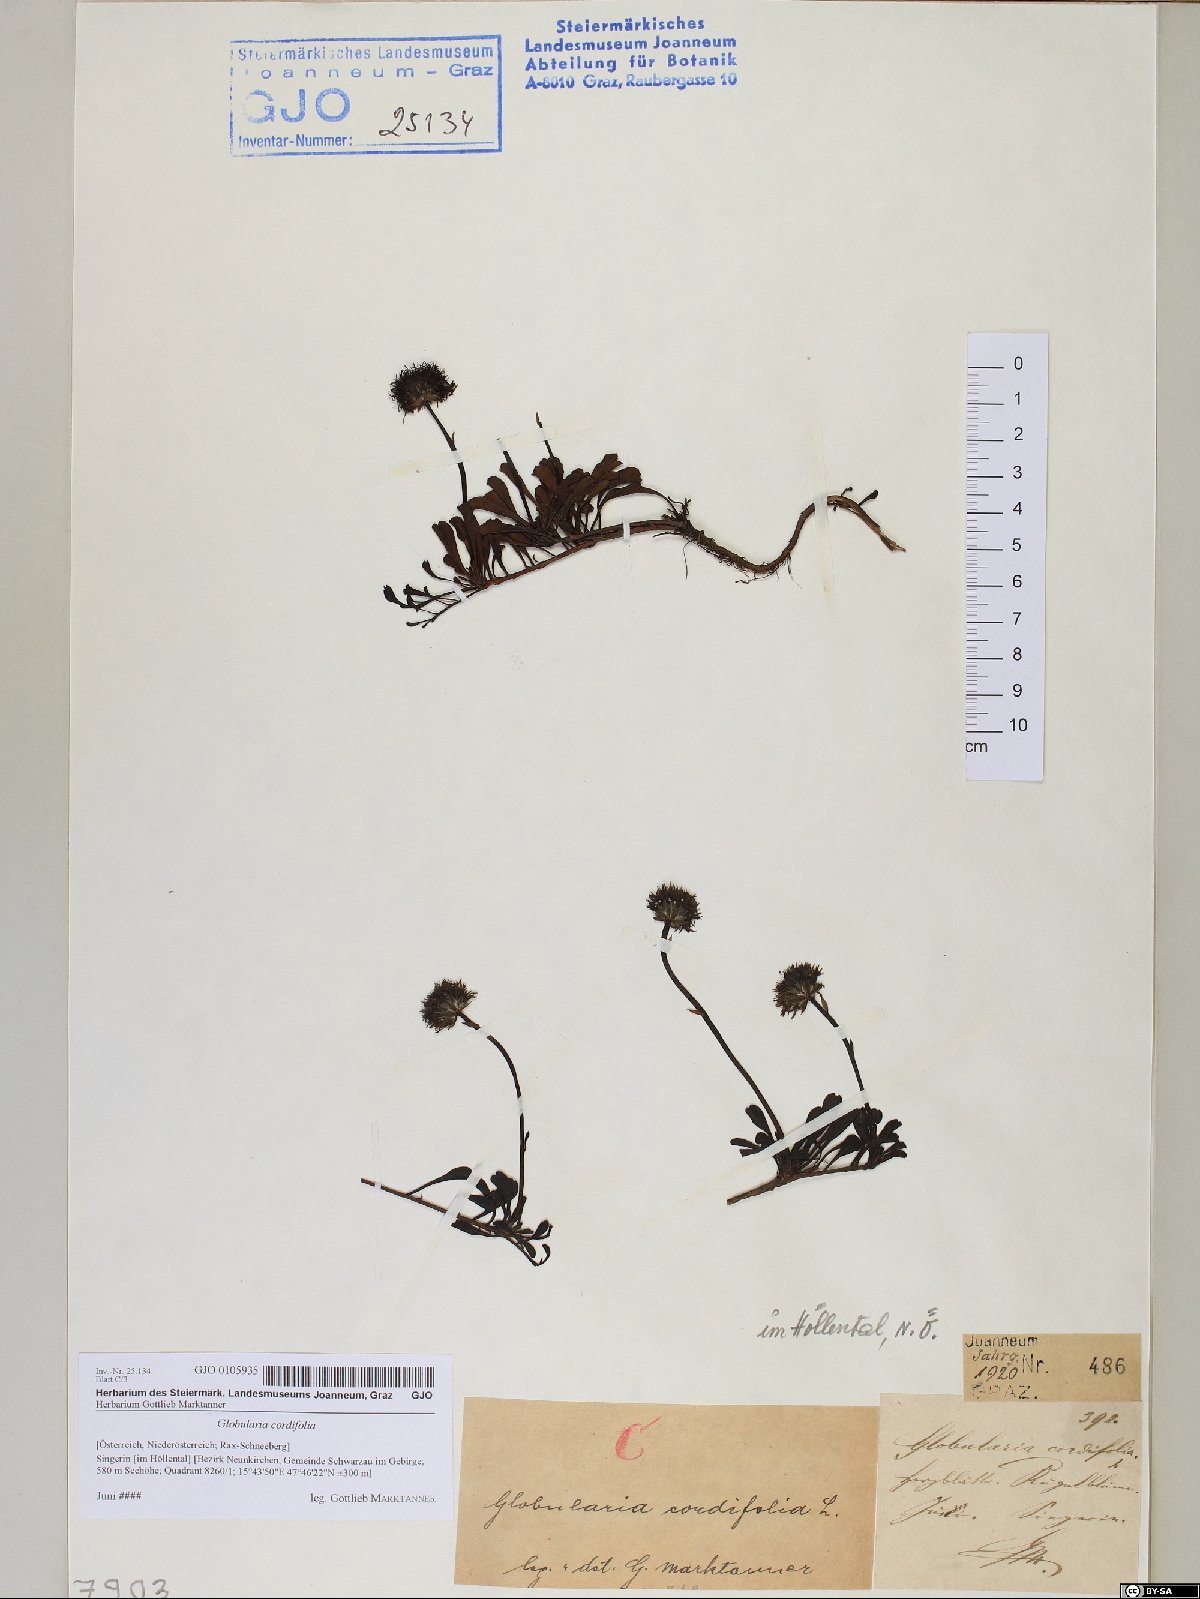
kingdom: Plantae
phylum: Tracheophyta
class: Magnoliopsida
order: Lamiales
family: Plantaginaceae
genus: Globularia
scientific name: Globularia cordifolia
